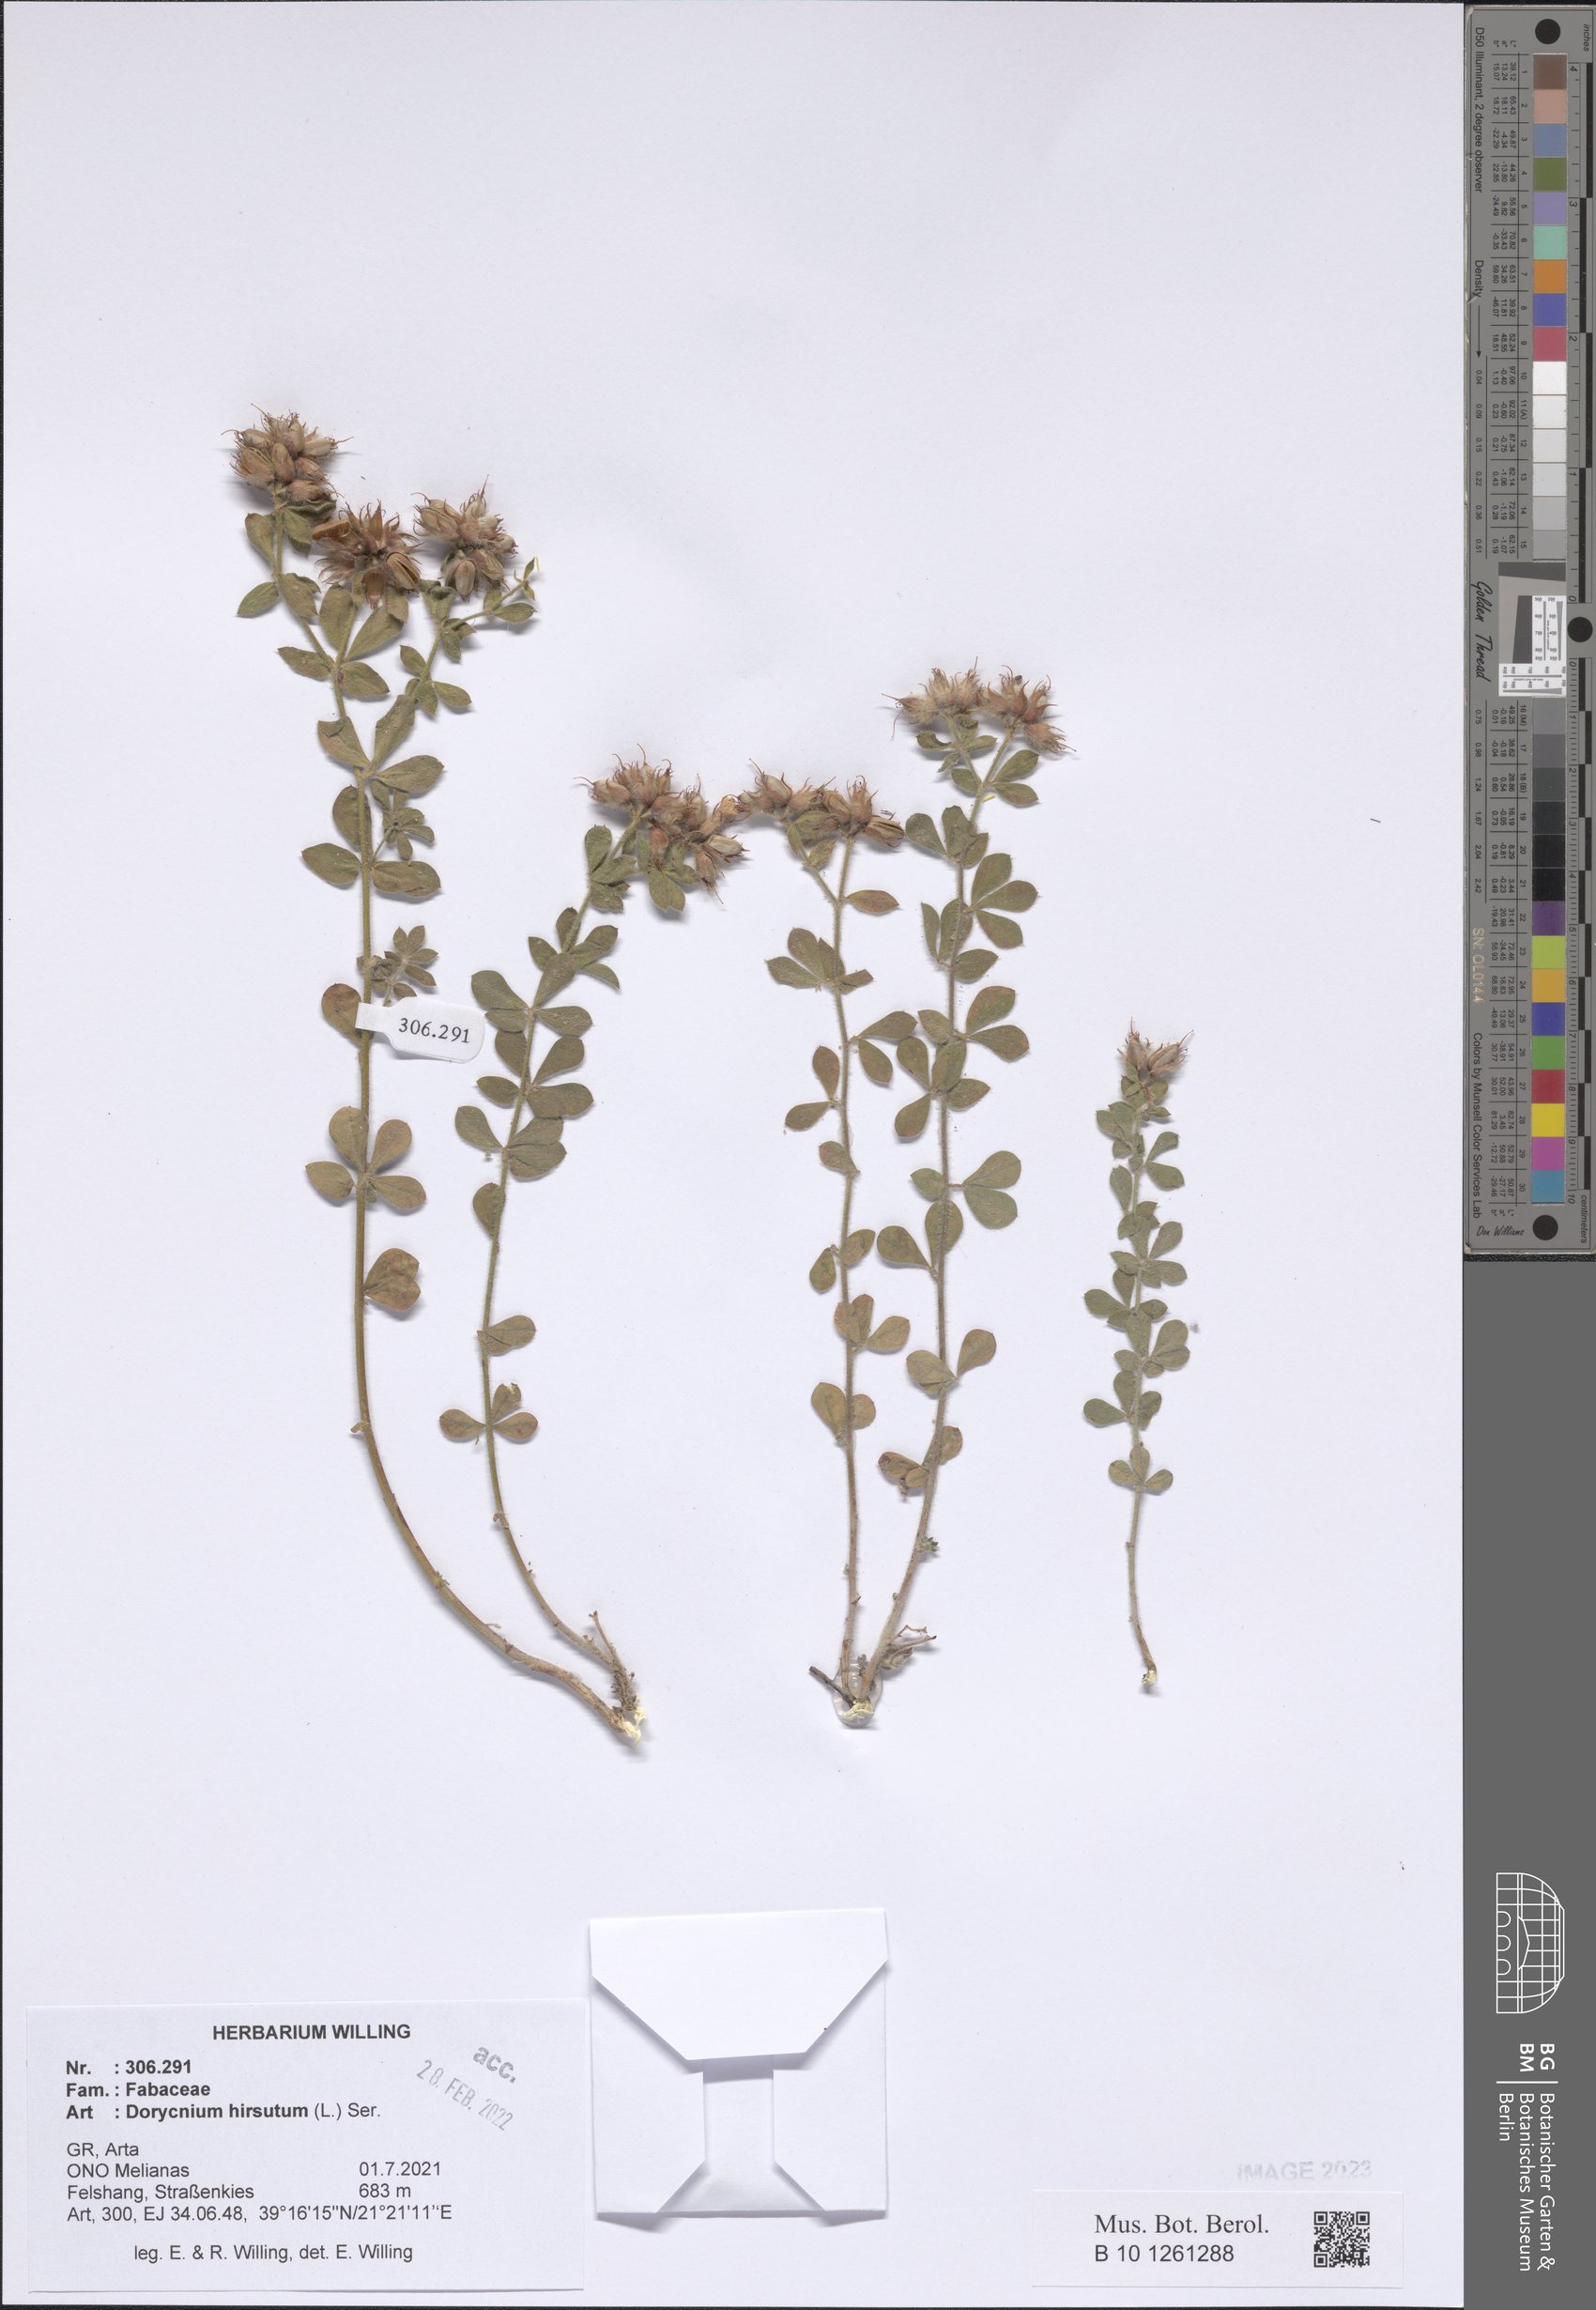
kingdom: Plantae
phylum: Tracheophyta
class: Magnoliopsida
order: Fabales
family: Fabaceae
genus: Lotus
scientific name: Lotus hirsutus
